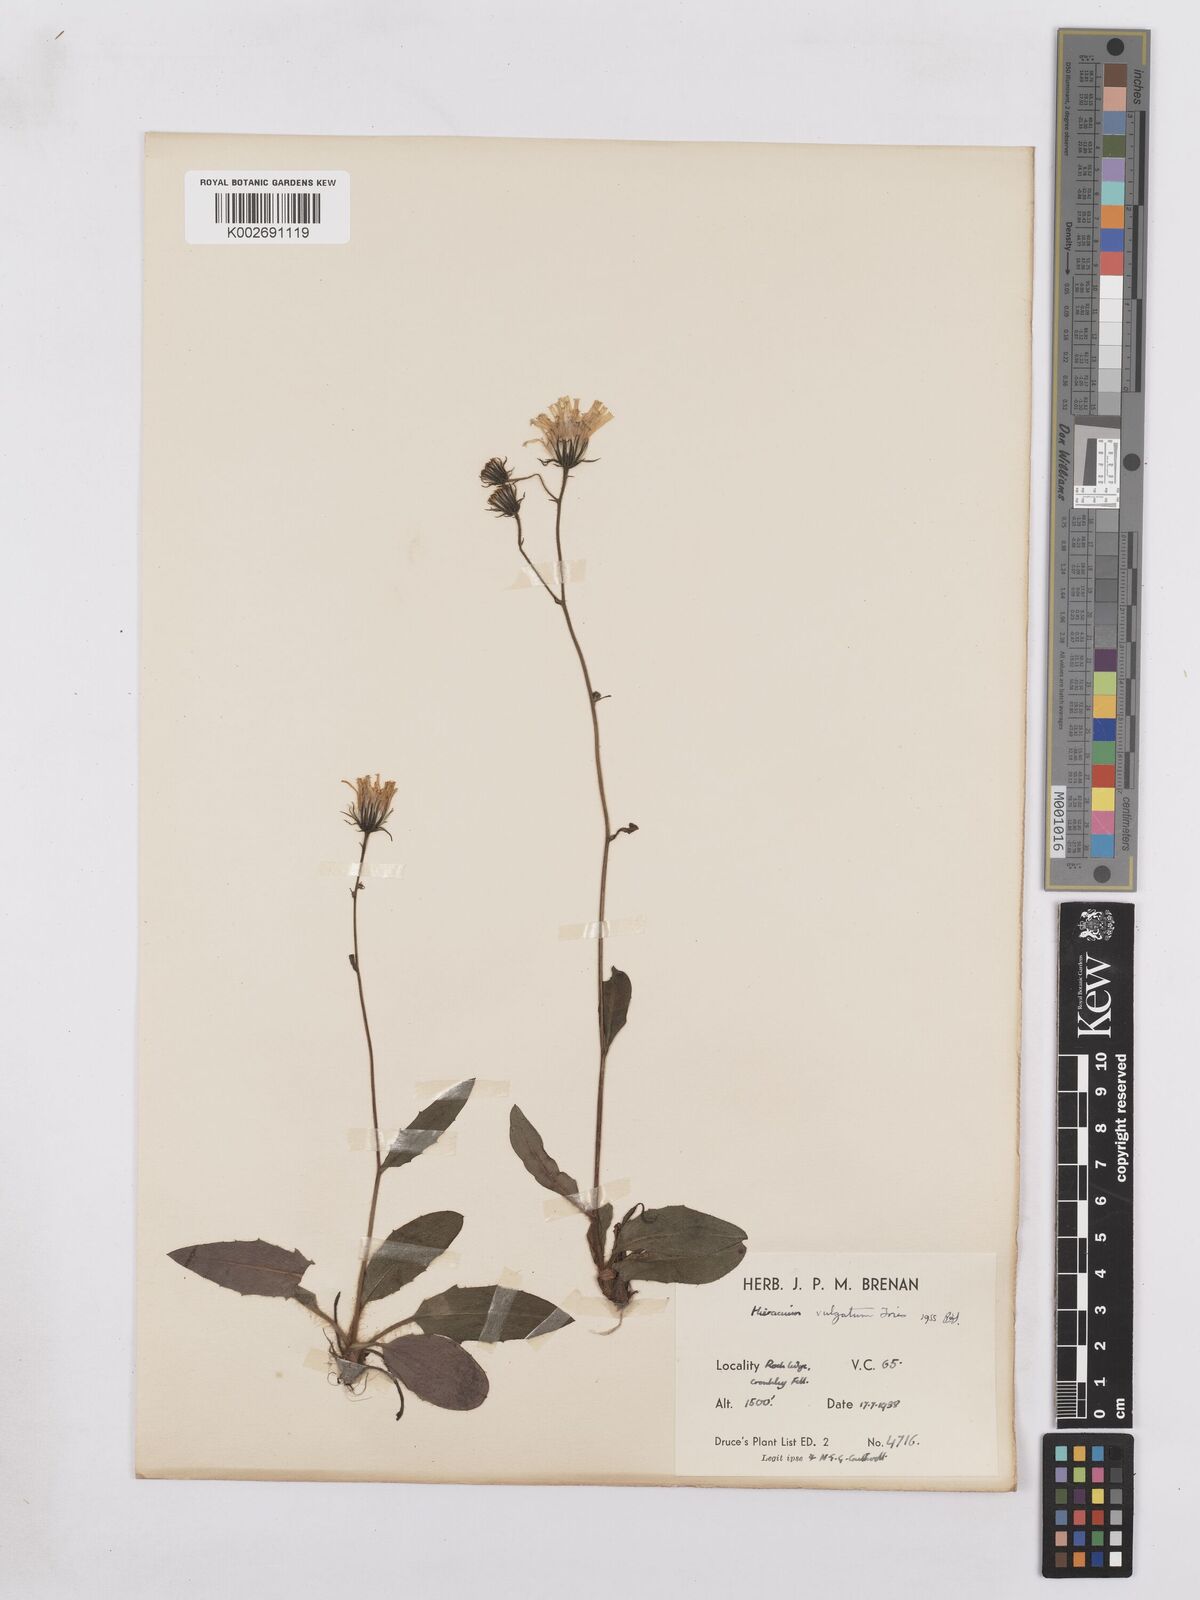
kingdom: Plantae
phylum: Tracheophyta
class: Magnoliopsida
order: Asterales
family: Asteraceae
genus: Hieracium
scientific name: Hieracium lachenalii
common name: Common hawkweed
